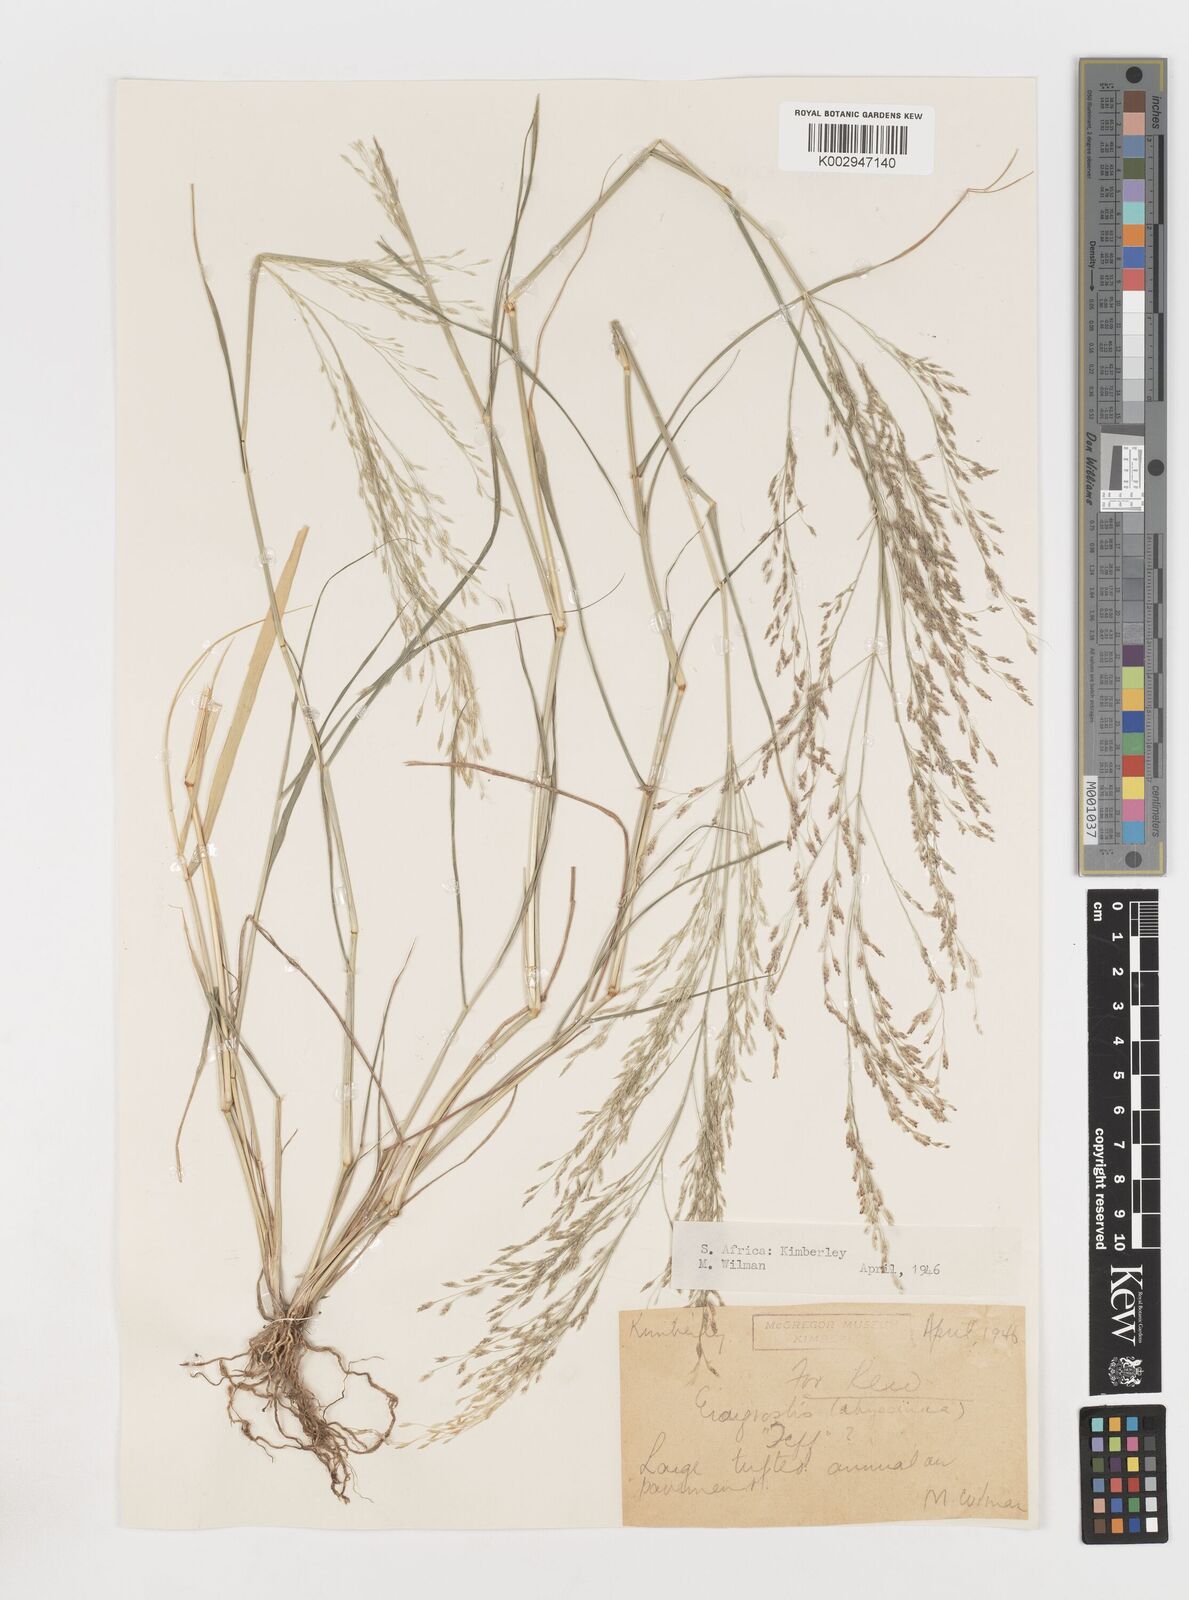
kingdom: Plantae
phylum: Tracheophyta
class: Liliopsida
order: Poales
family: Poaceae
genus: Eragrostis
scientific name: Eragrostis tef
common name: Teff
